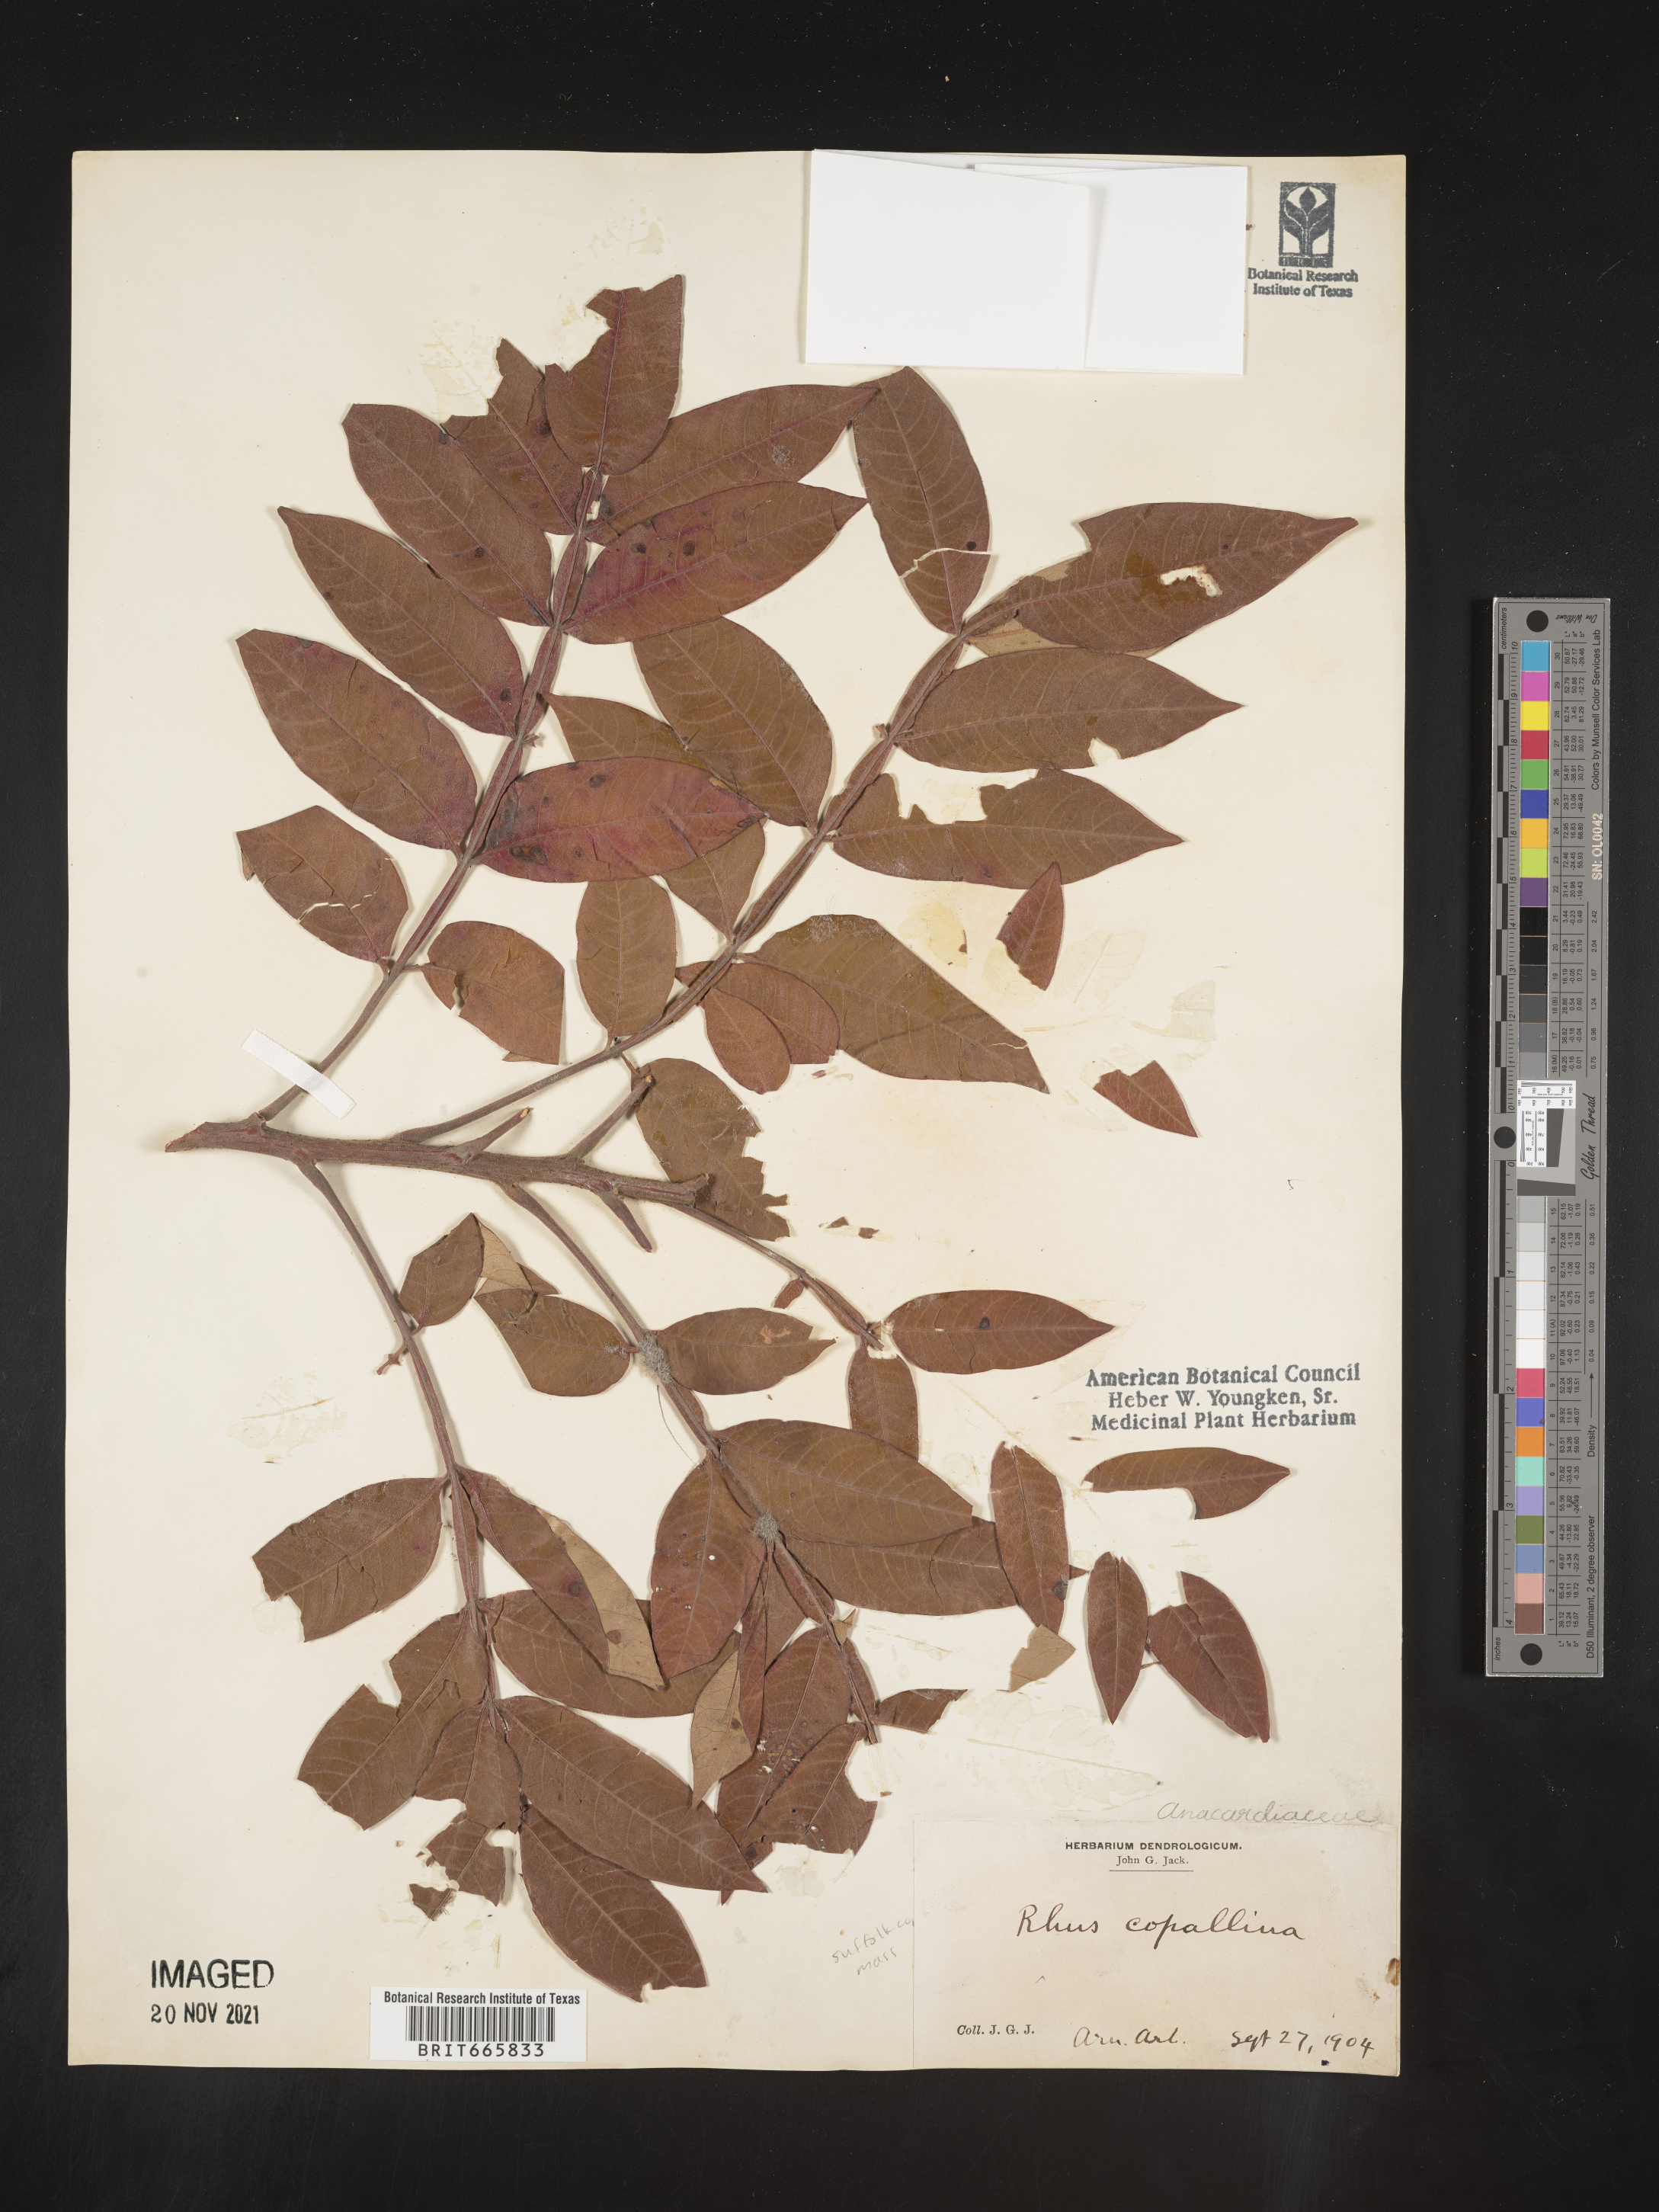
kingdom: Plantae
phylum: Tracheophyta
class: Magnoliopsida
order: Sapindales
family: Anacardiaceae
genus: Rhus
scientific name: Rhus copallina
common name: Shining sumac
